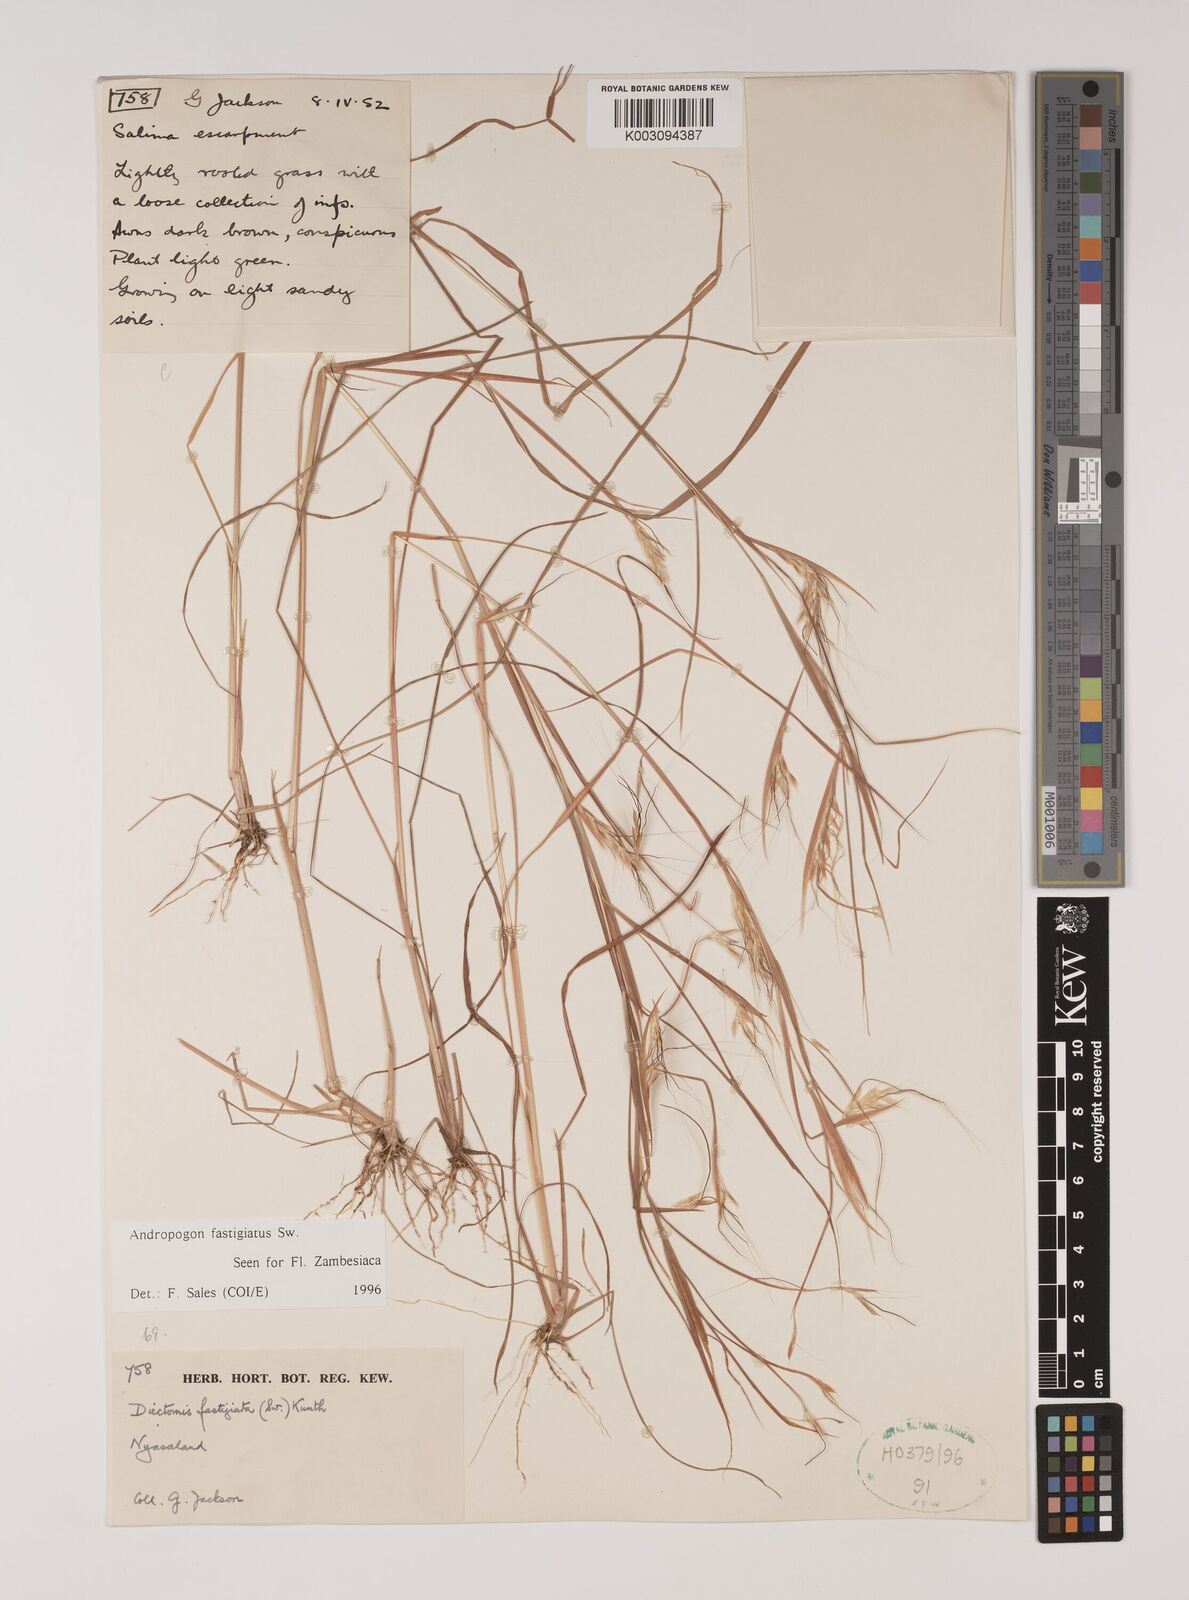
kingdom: Plantae
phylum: Tracheophyta
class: Liliopsida
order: Poales
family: Poaceae
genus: Andropogon
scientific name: Andropogon festuciformis
